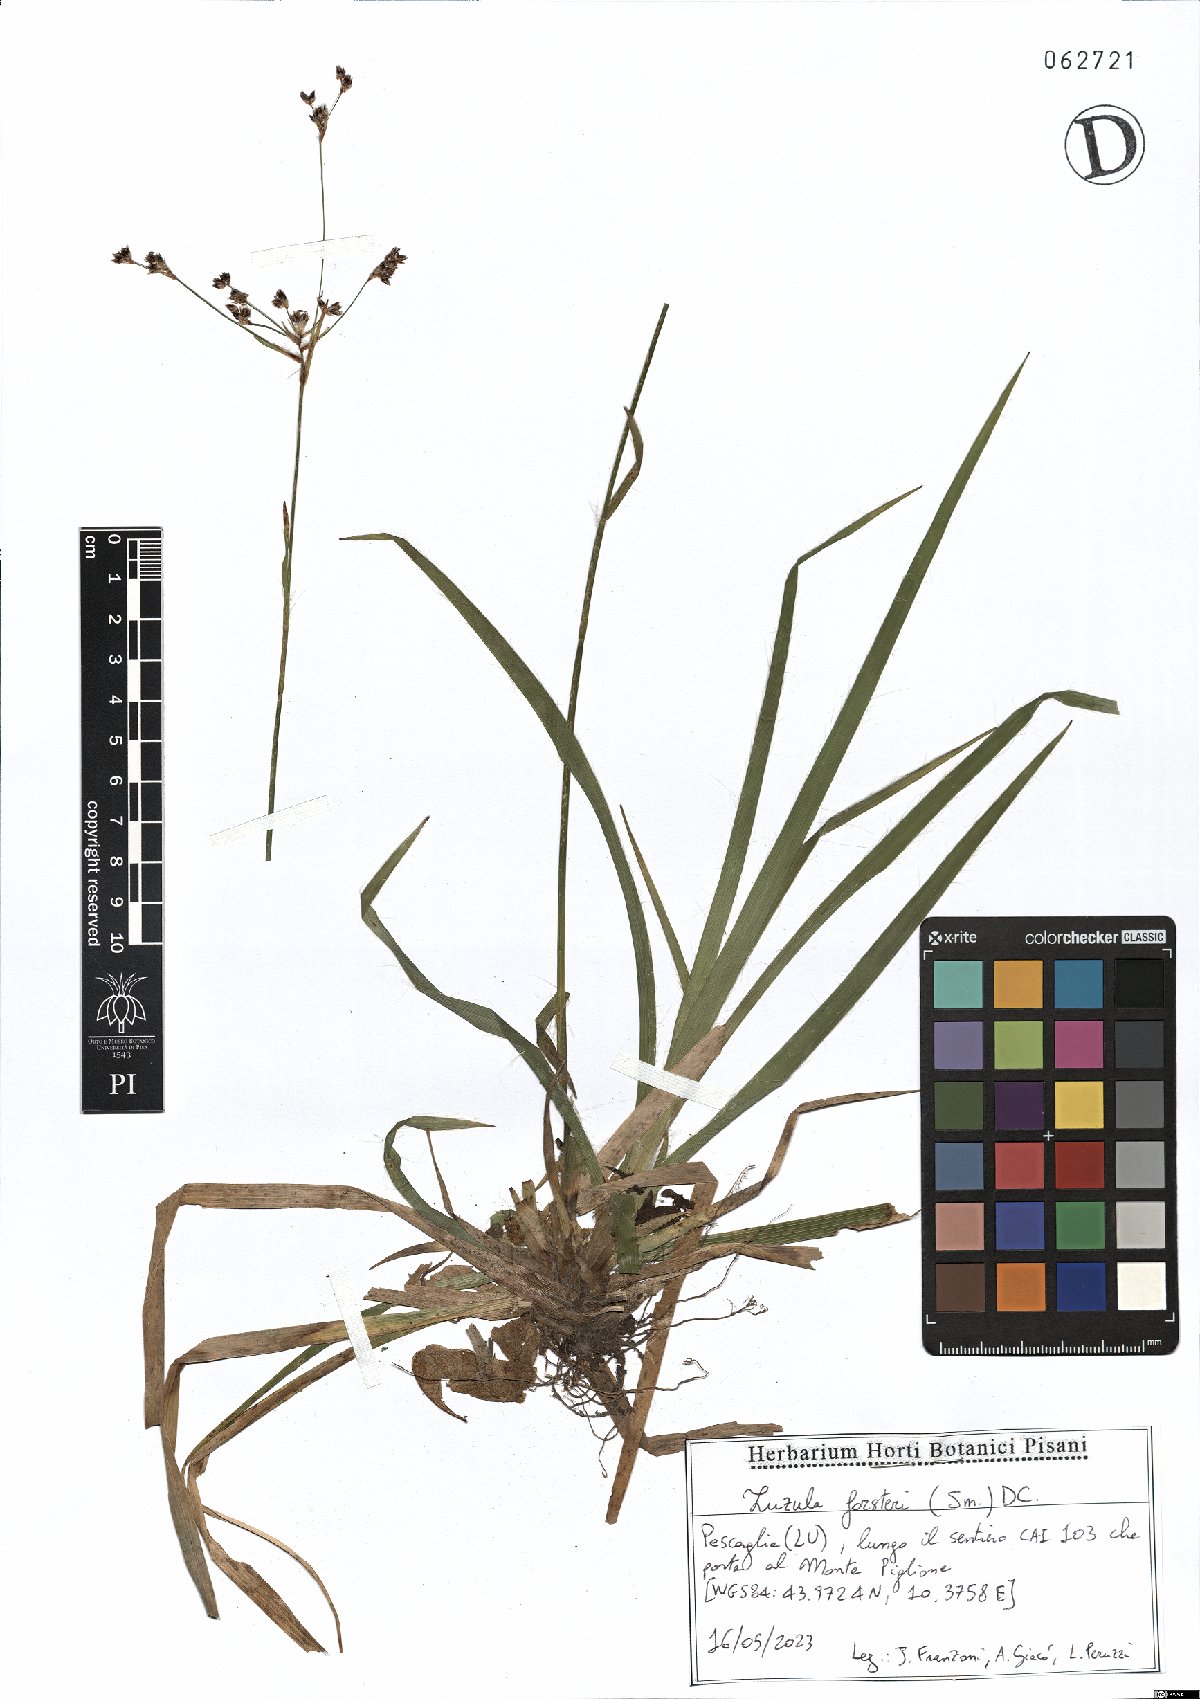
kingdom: Plantae
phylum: Tracheophyta
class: Liliopsida
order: Poales
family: Juncaceae
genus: Luzula
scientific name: Luzula forsteri
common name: Southern wood-rush
